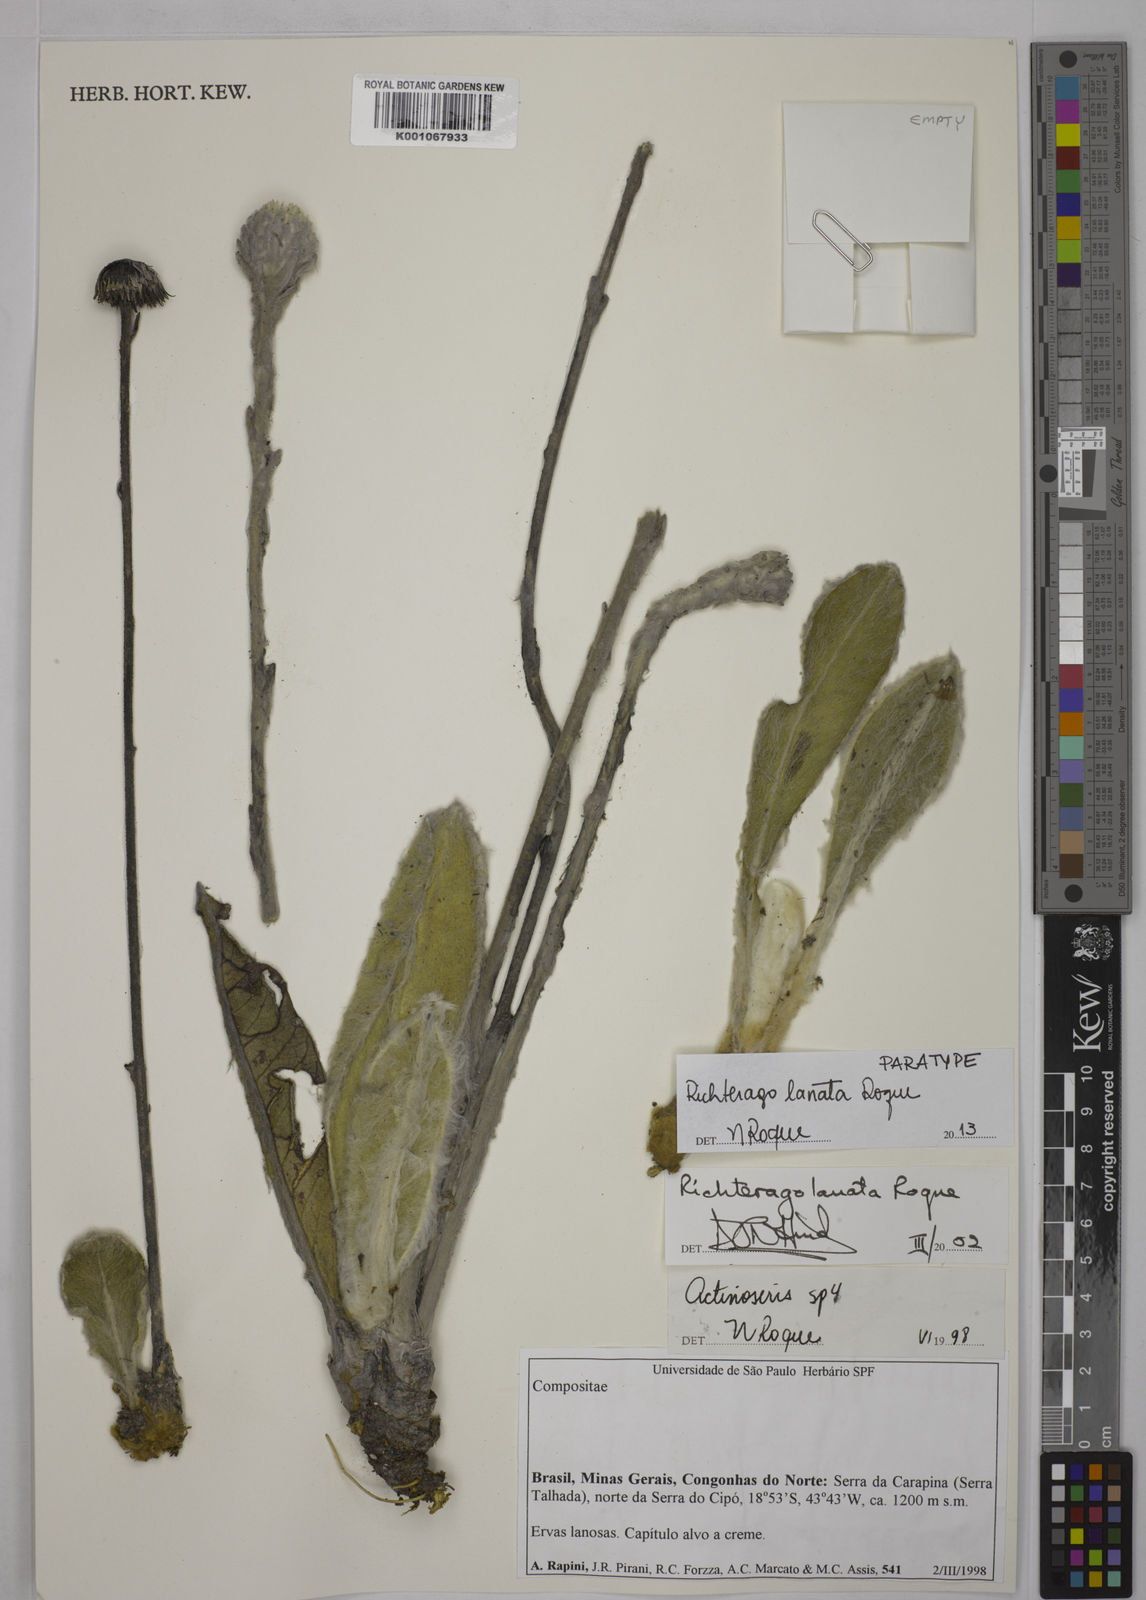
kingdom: Plantae
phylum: Tracheophyta
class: Magnoliopsida
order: Asterales
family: Asteraceae
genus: Richterago
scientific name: Richterago lanata
